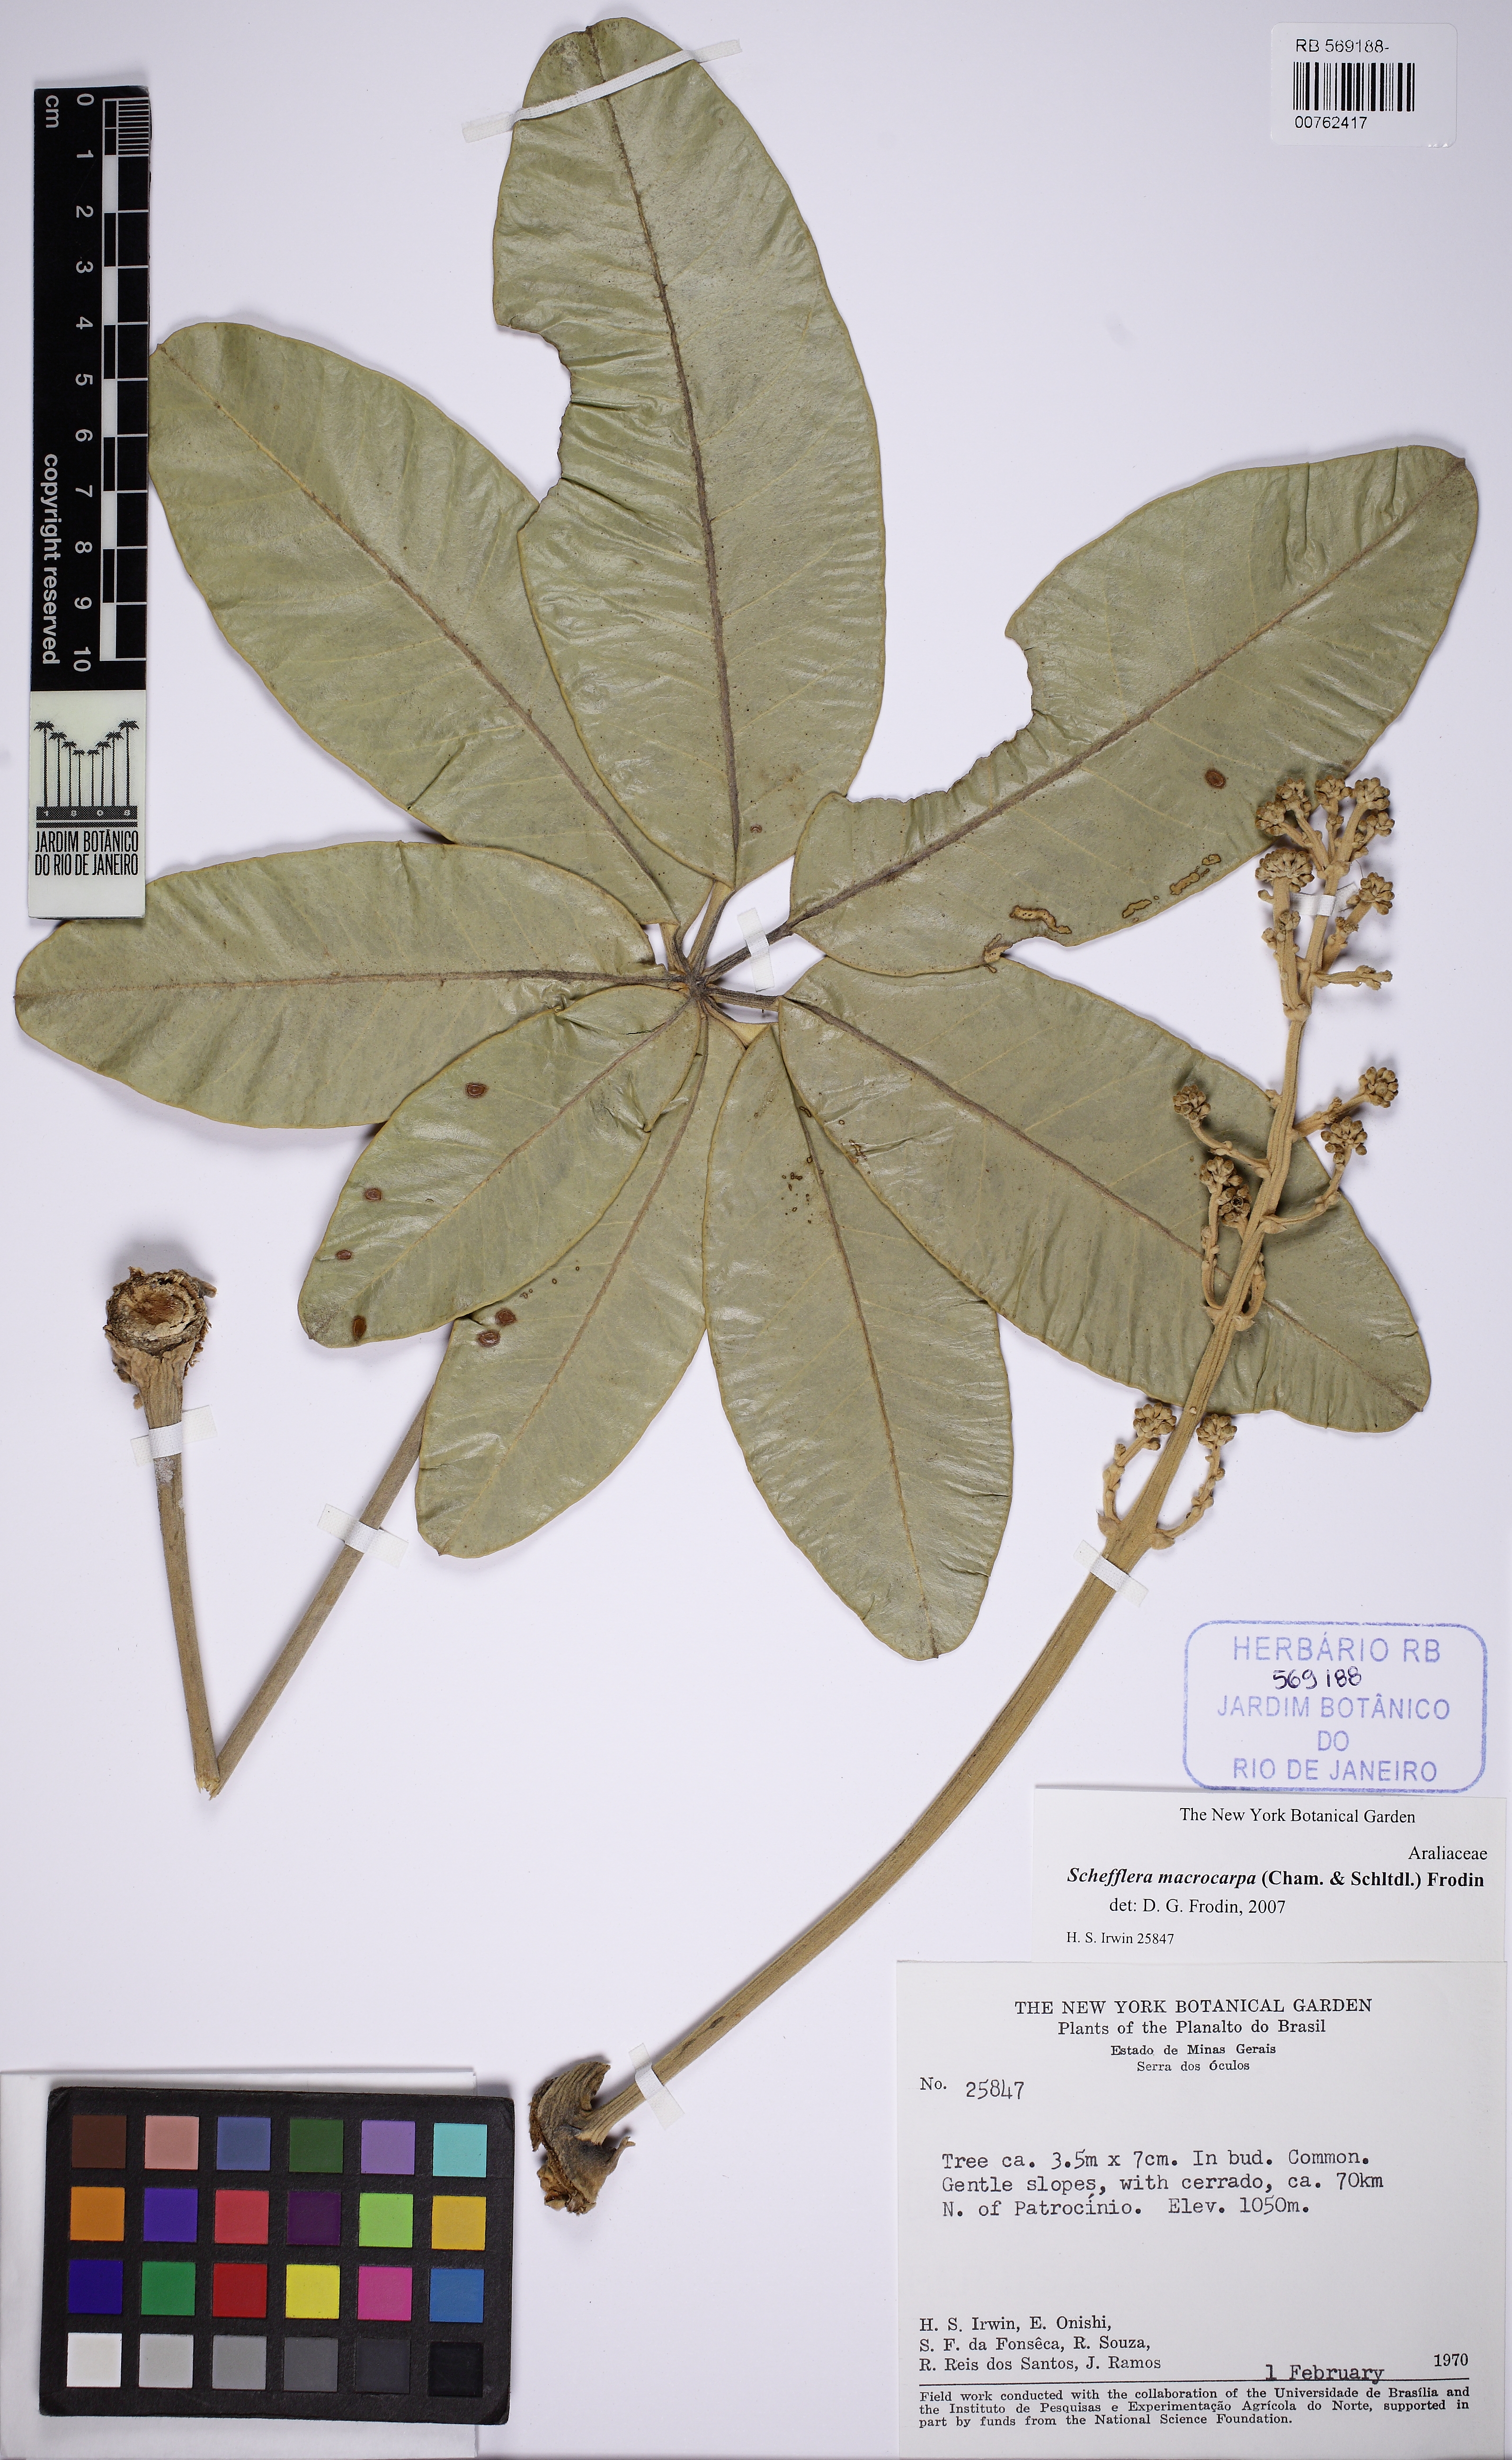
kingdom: Plantae
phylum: Tracheophyta
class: Magnoliopsida
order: Apiales
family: Araliaceae
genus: Didymopanax
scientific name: Didymopanax macrocarpus
